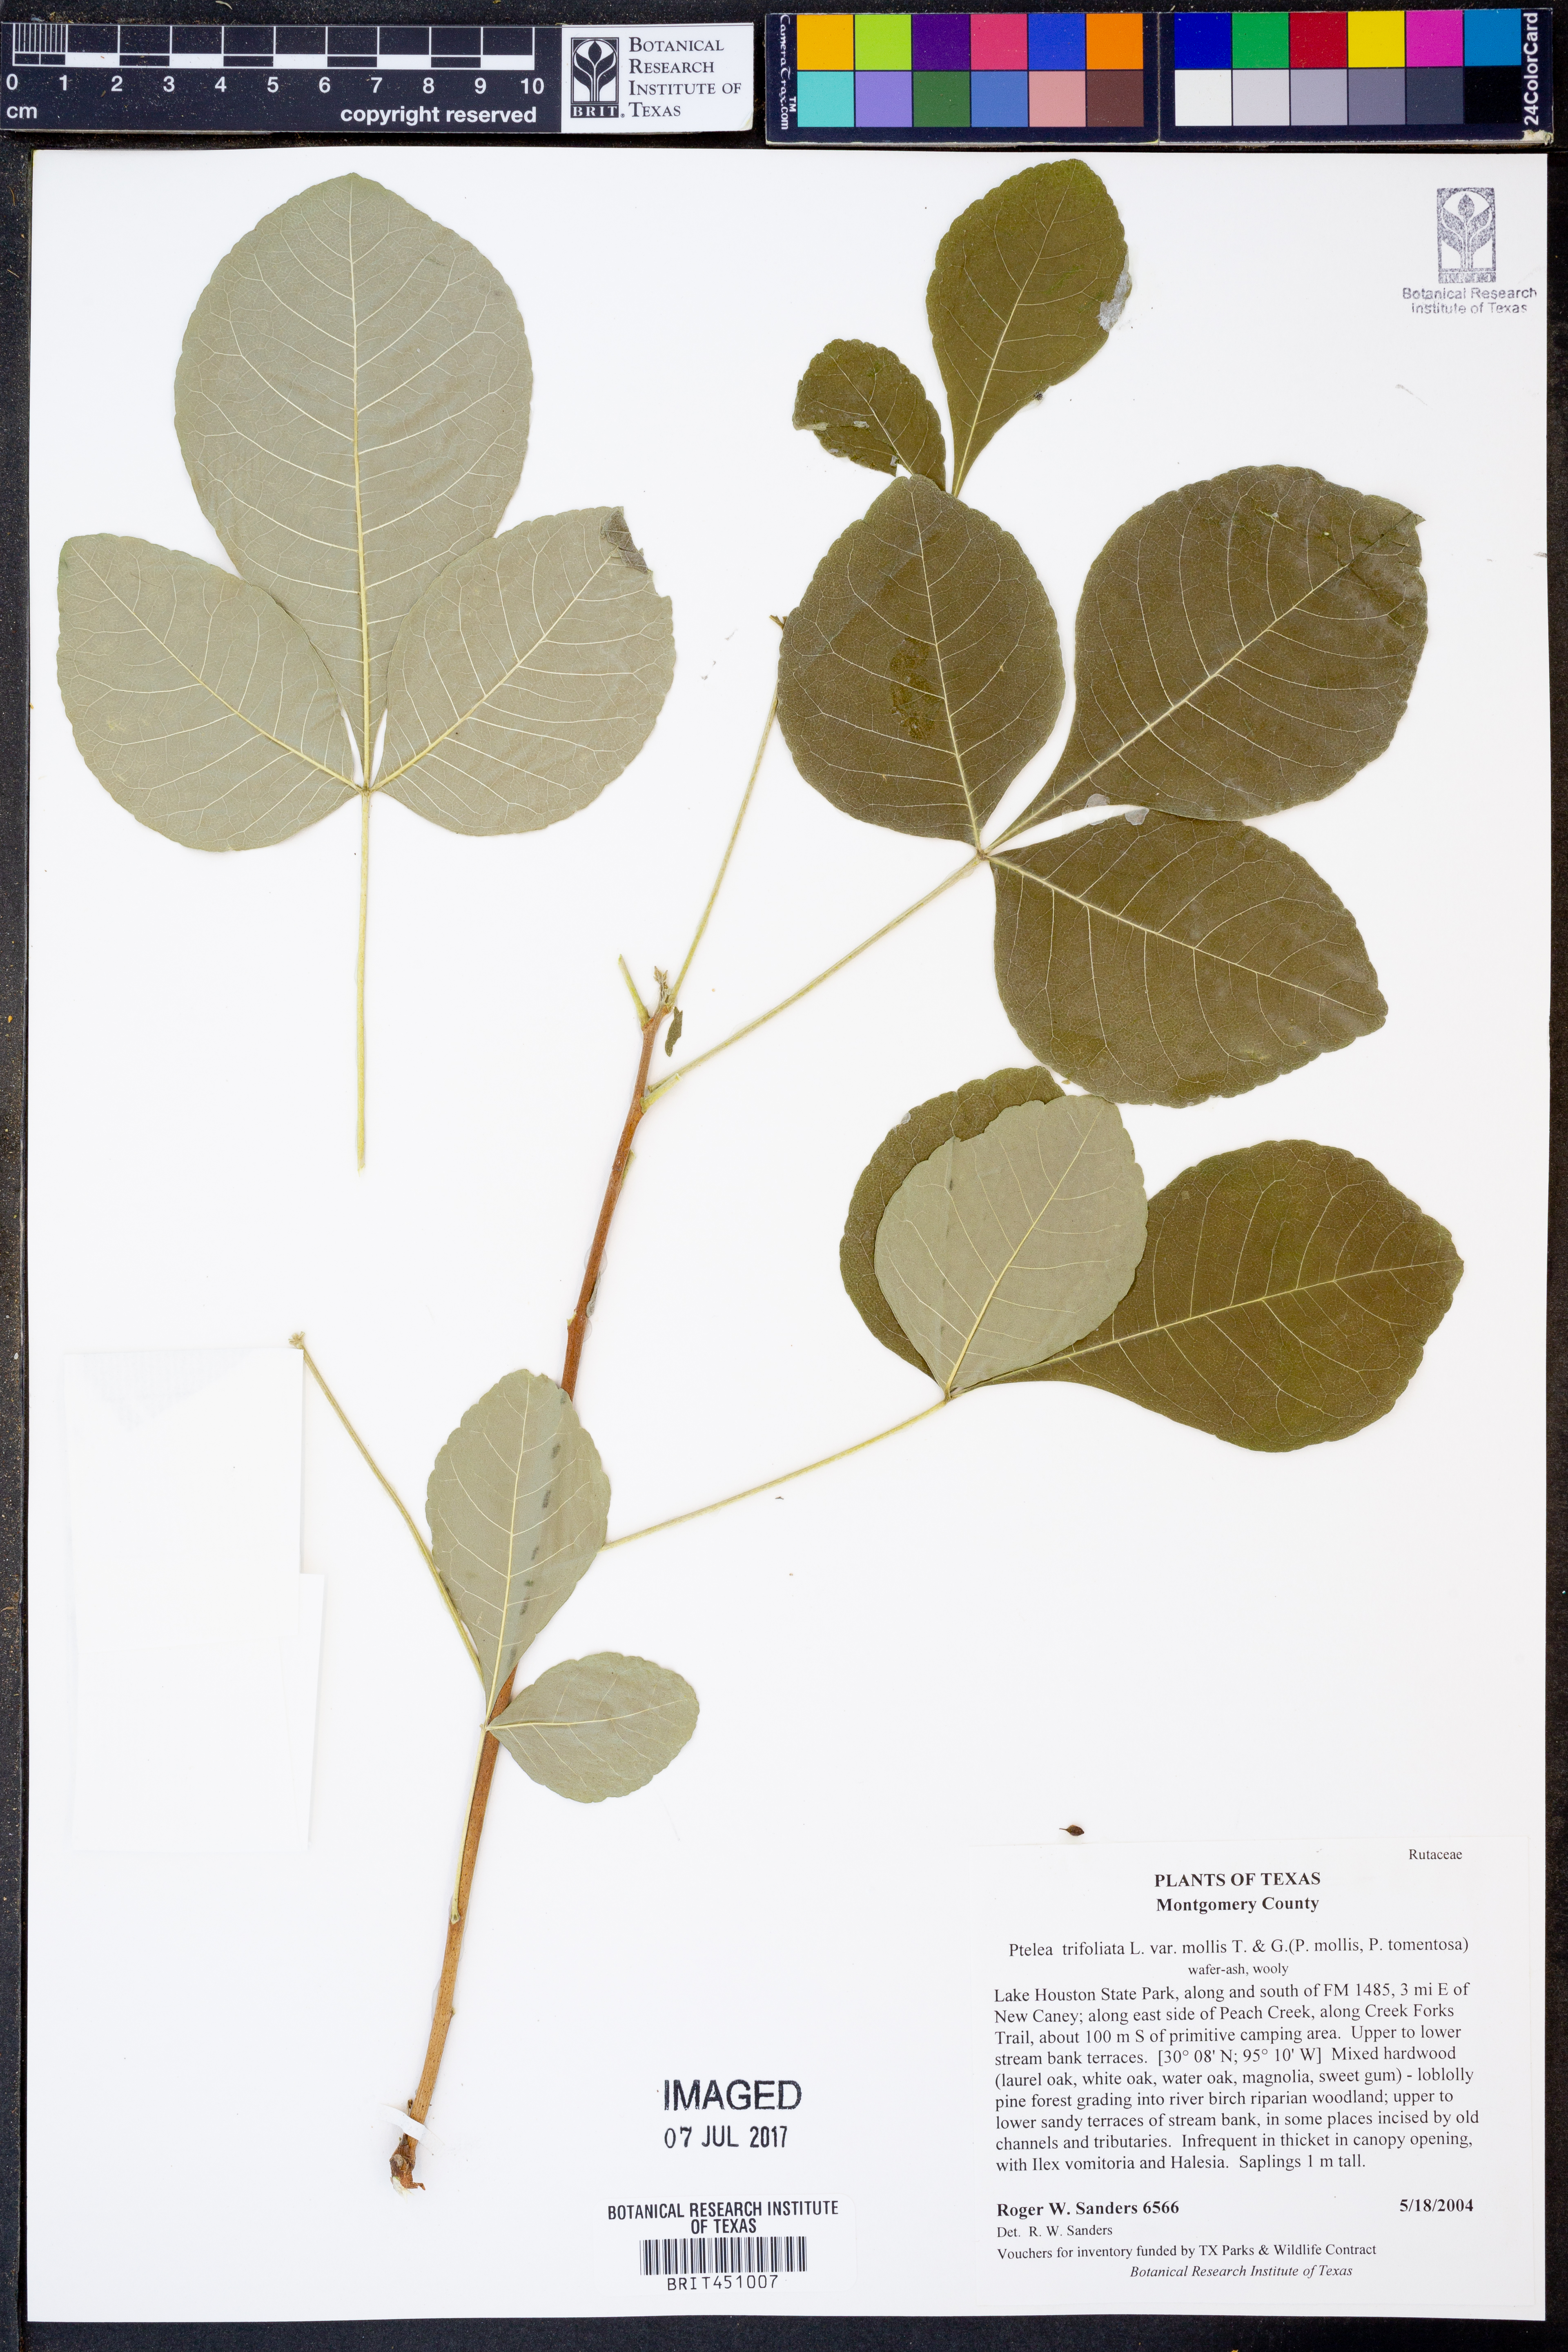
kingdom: Plantae
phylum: Tracheophyta
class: Magnoliopsida
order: Sapindales
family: Rutaceae
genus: Ptelea
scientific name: Ptelea trifoliata
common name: Common hop-tree
